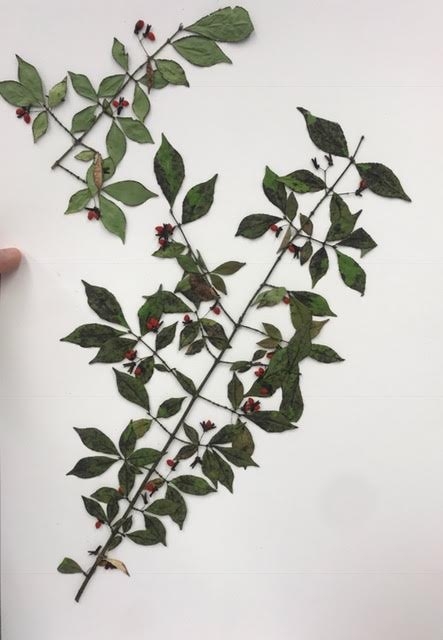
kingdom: Plantae
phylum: Tracheophyta
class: Magnoliopsida
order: Celastrales
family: Celastraceae
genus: Euonymus
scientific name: Euonymus alatus
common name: Burning Bush
